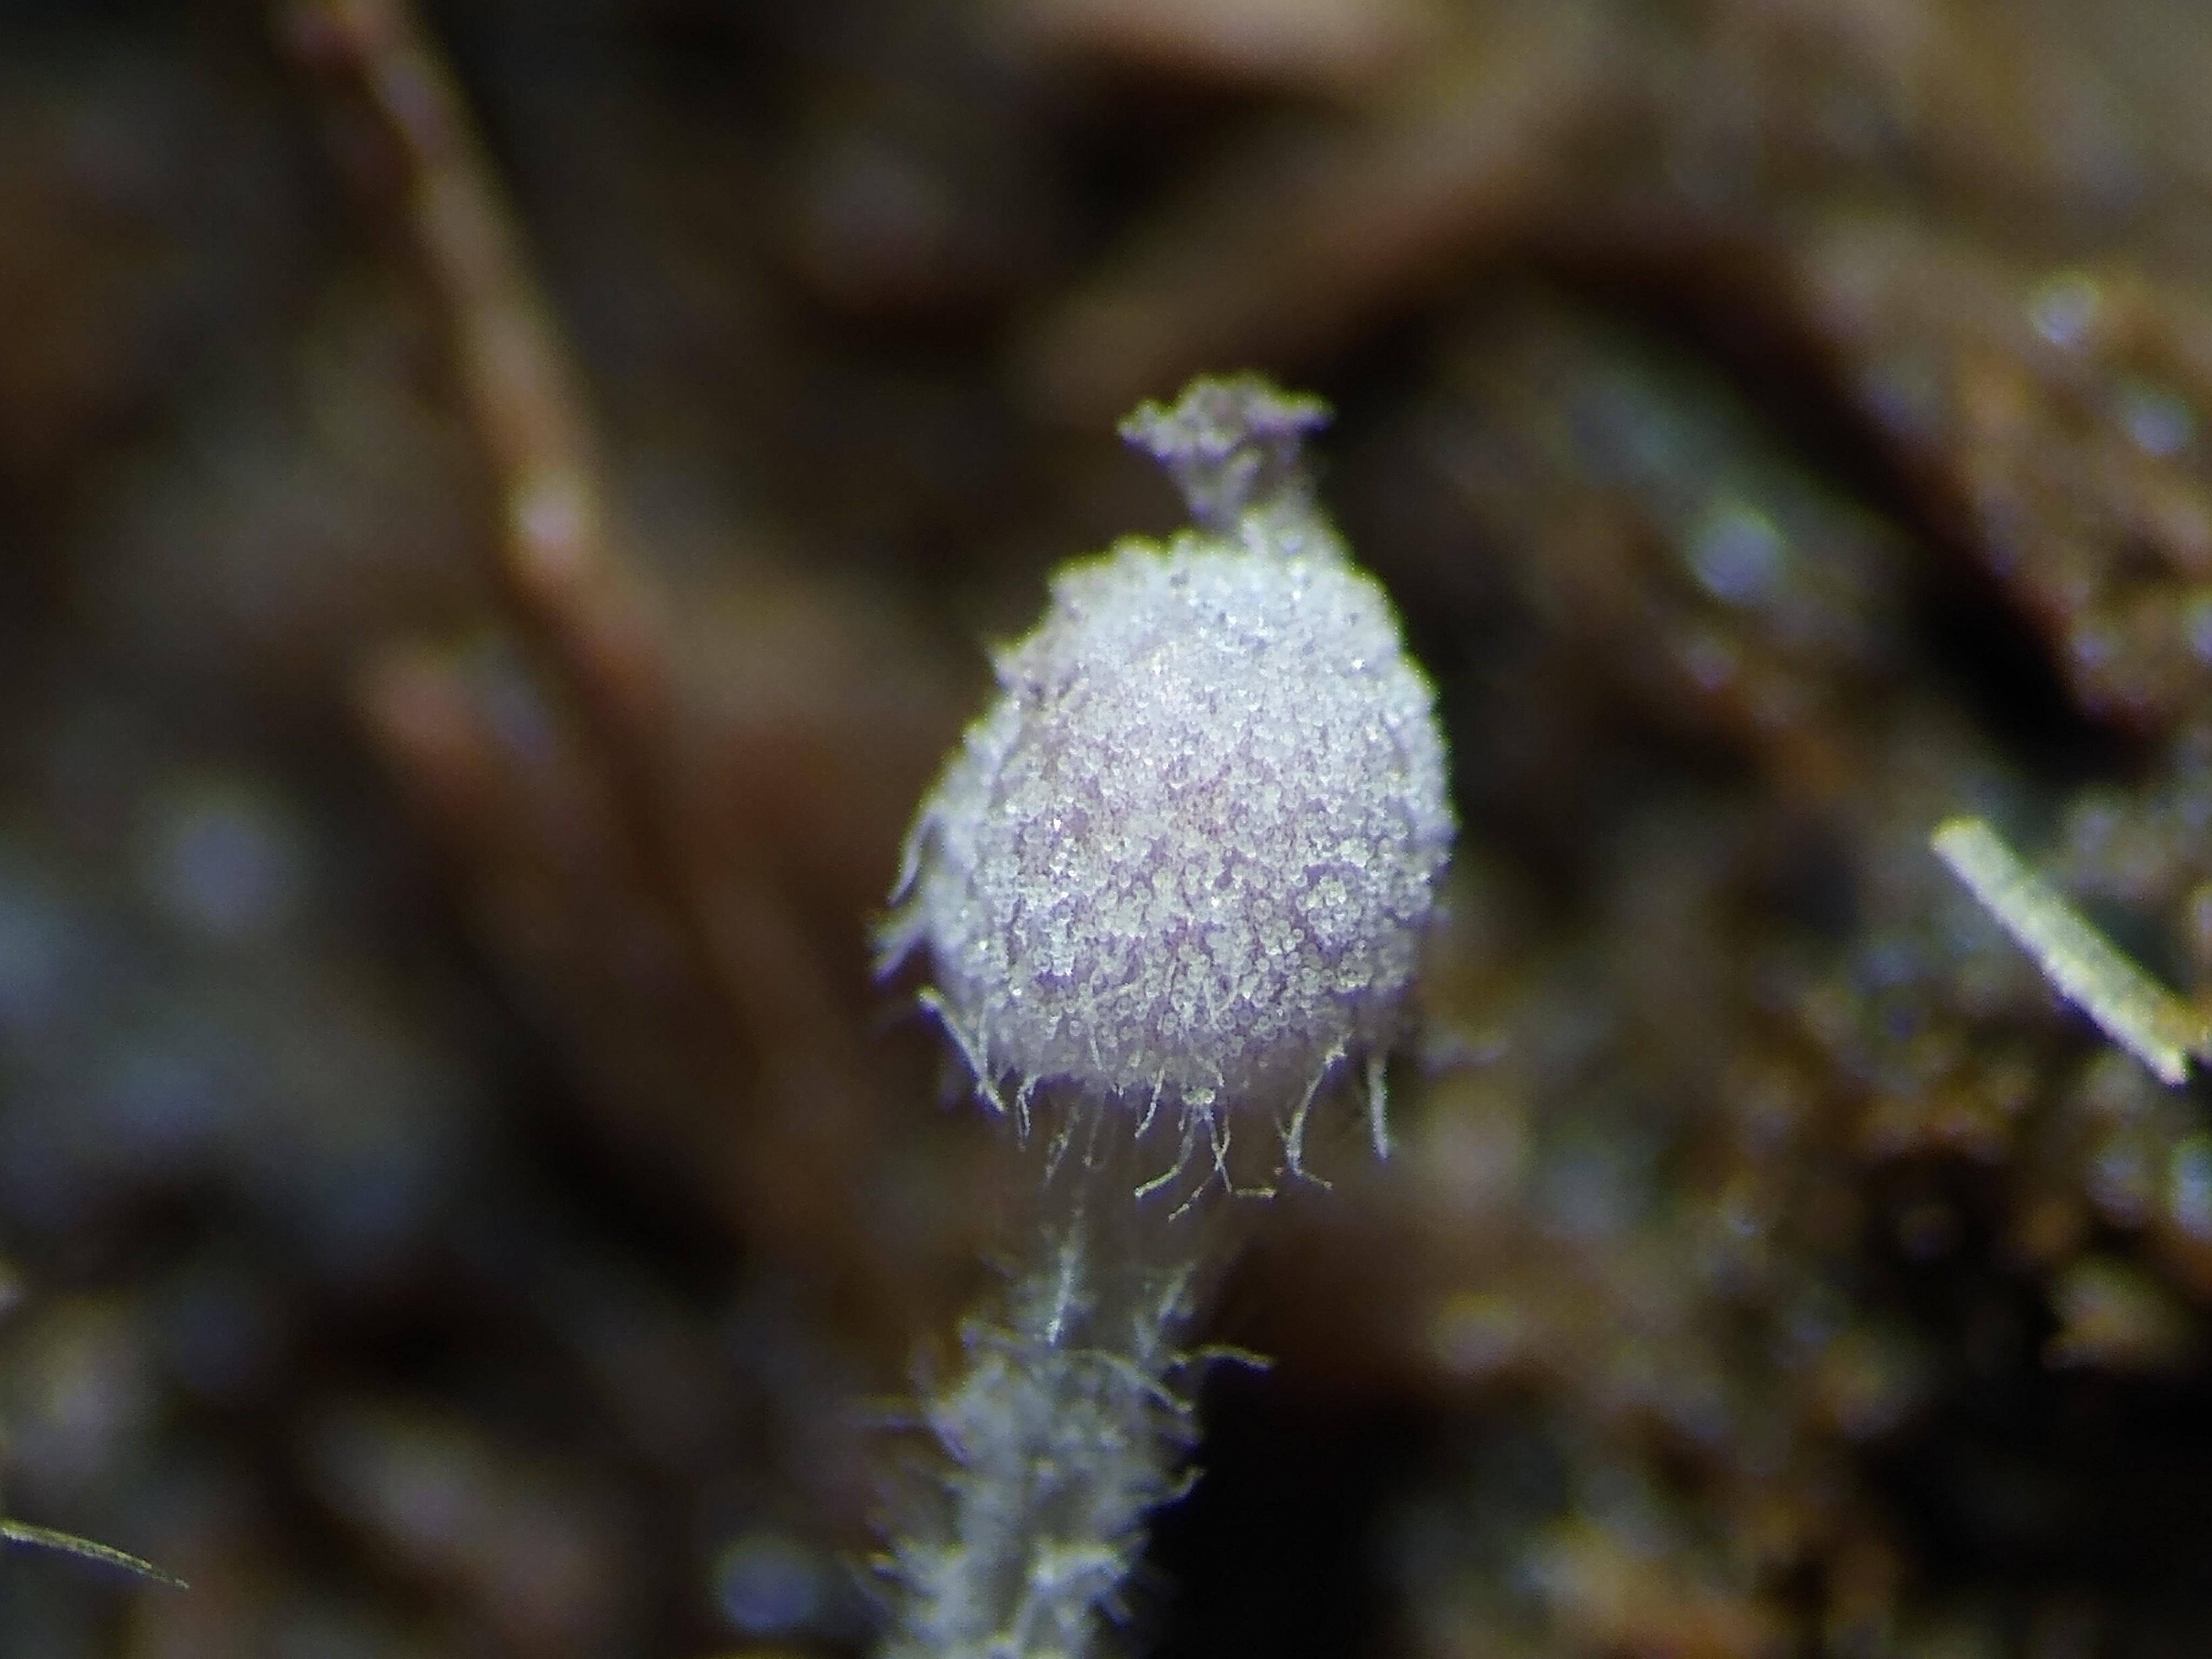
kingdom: Fungi
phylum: Basidiomycota
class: Agaricomycetes
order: Agaricales
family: Psathyrellaceae
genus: Coprinopsis
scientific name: Coprinopsis stercorea
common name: pjusket blækhat
